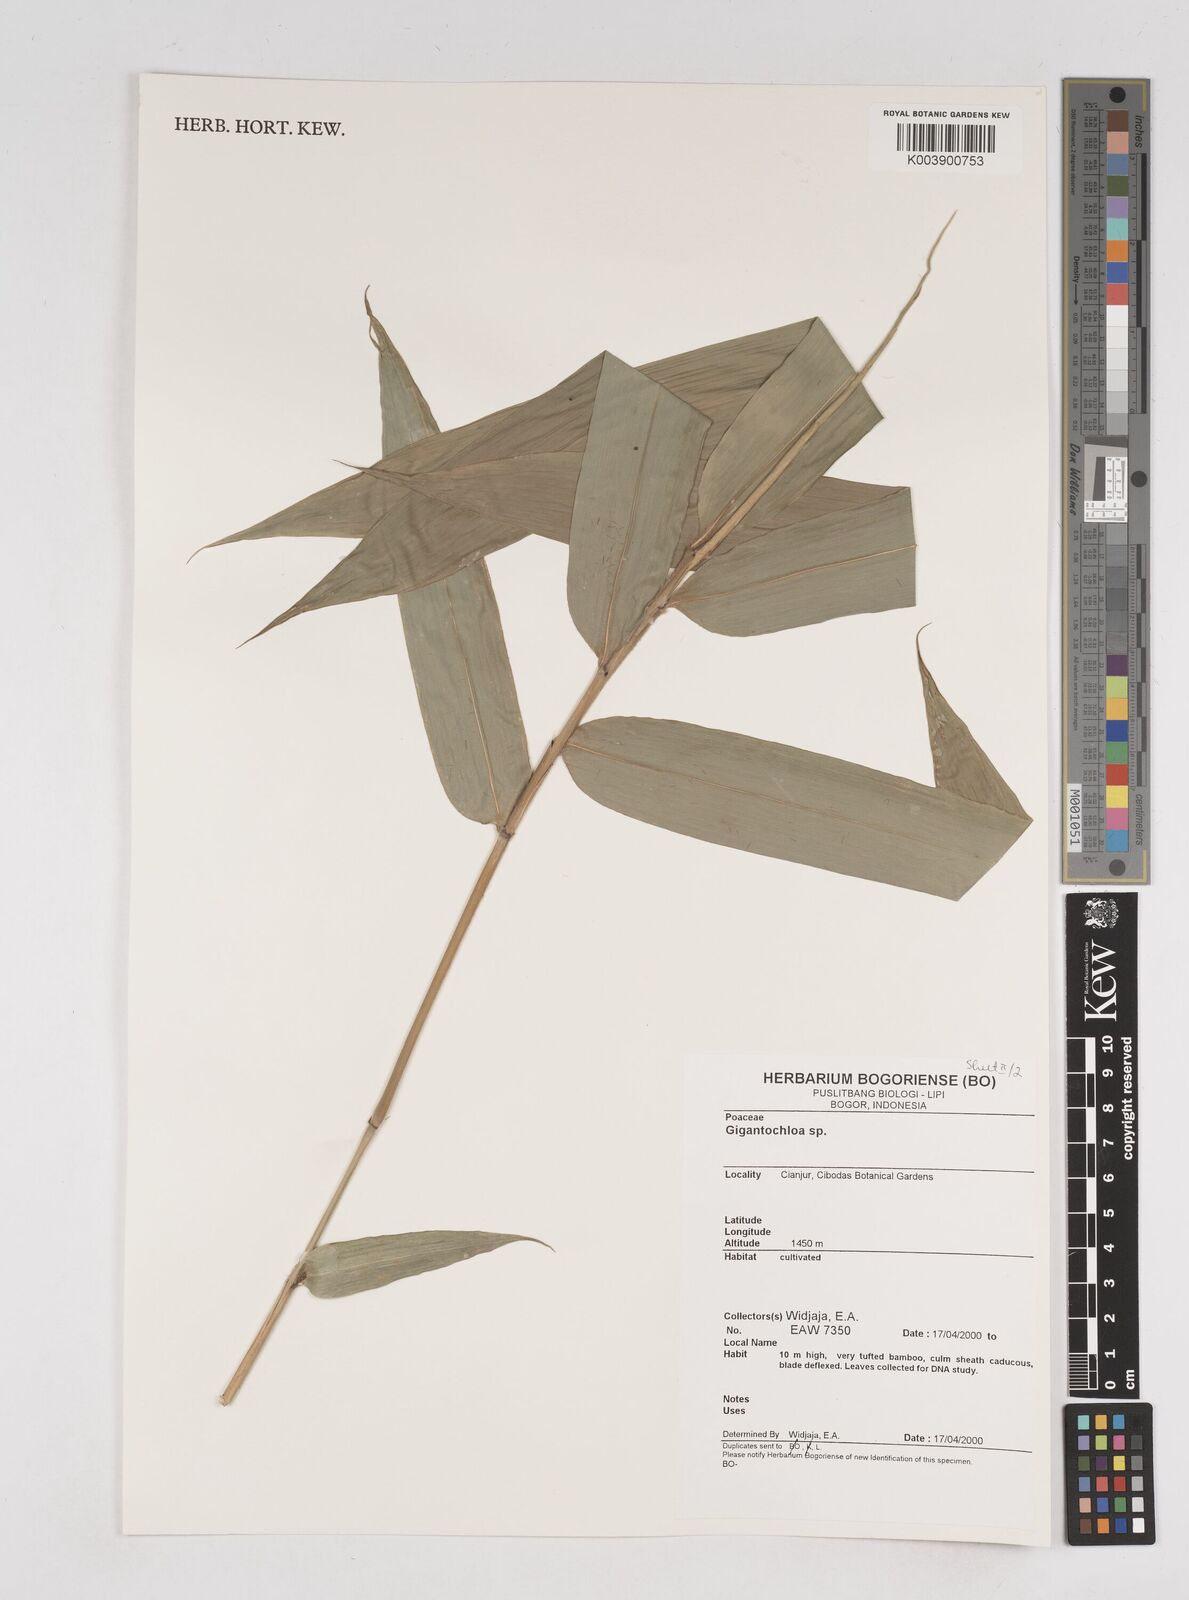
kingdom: Plantae
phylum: Tracheophyta
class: Liliopsida
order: Poales
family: Poaceae
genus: Gigantochloa
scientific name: Gigantochloa
